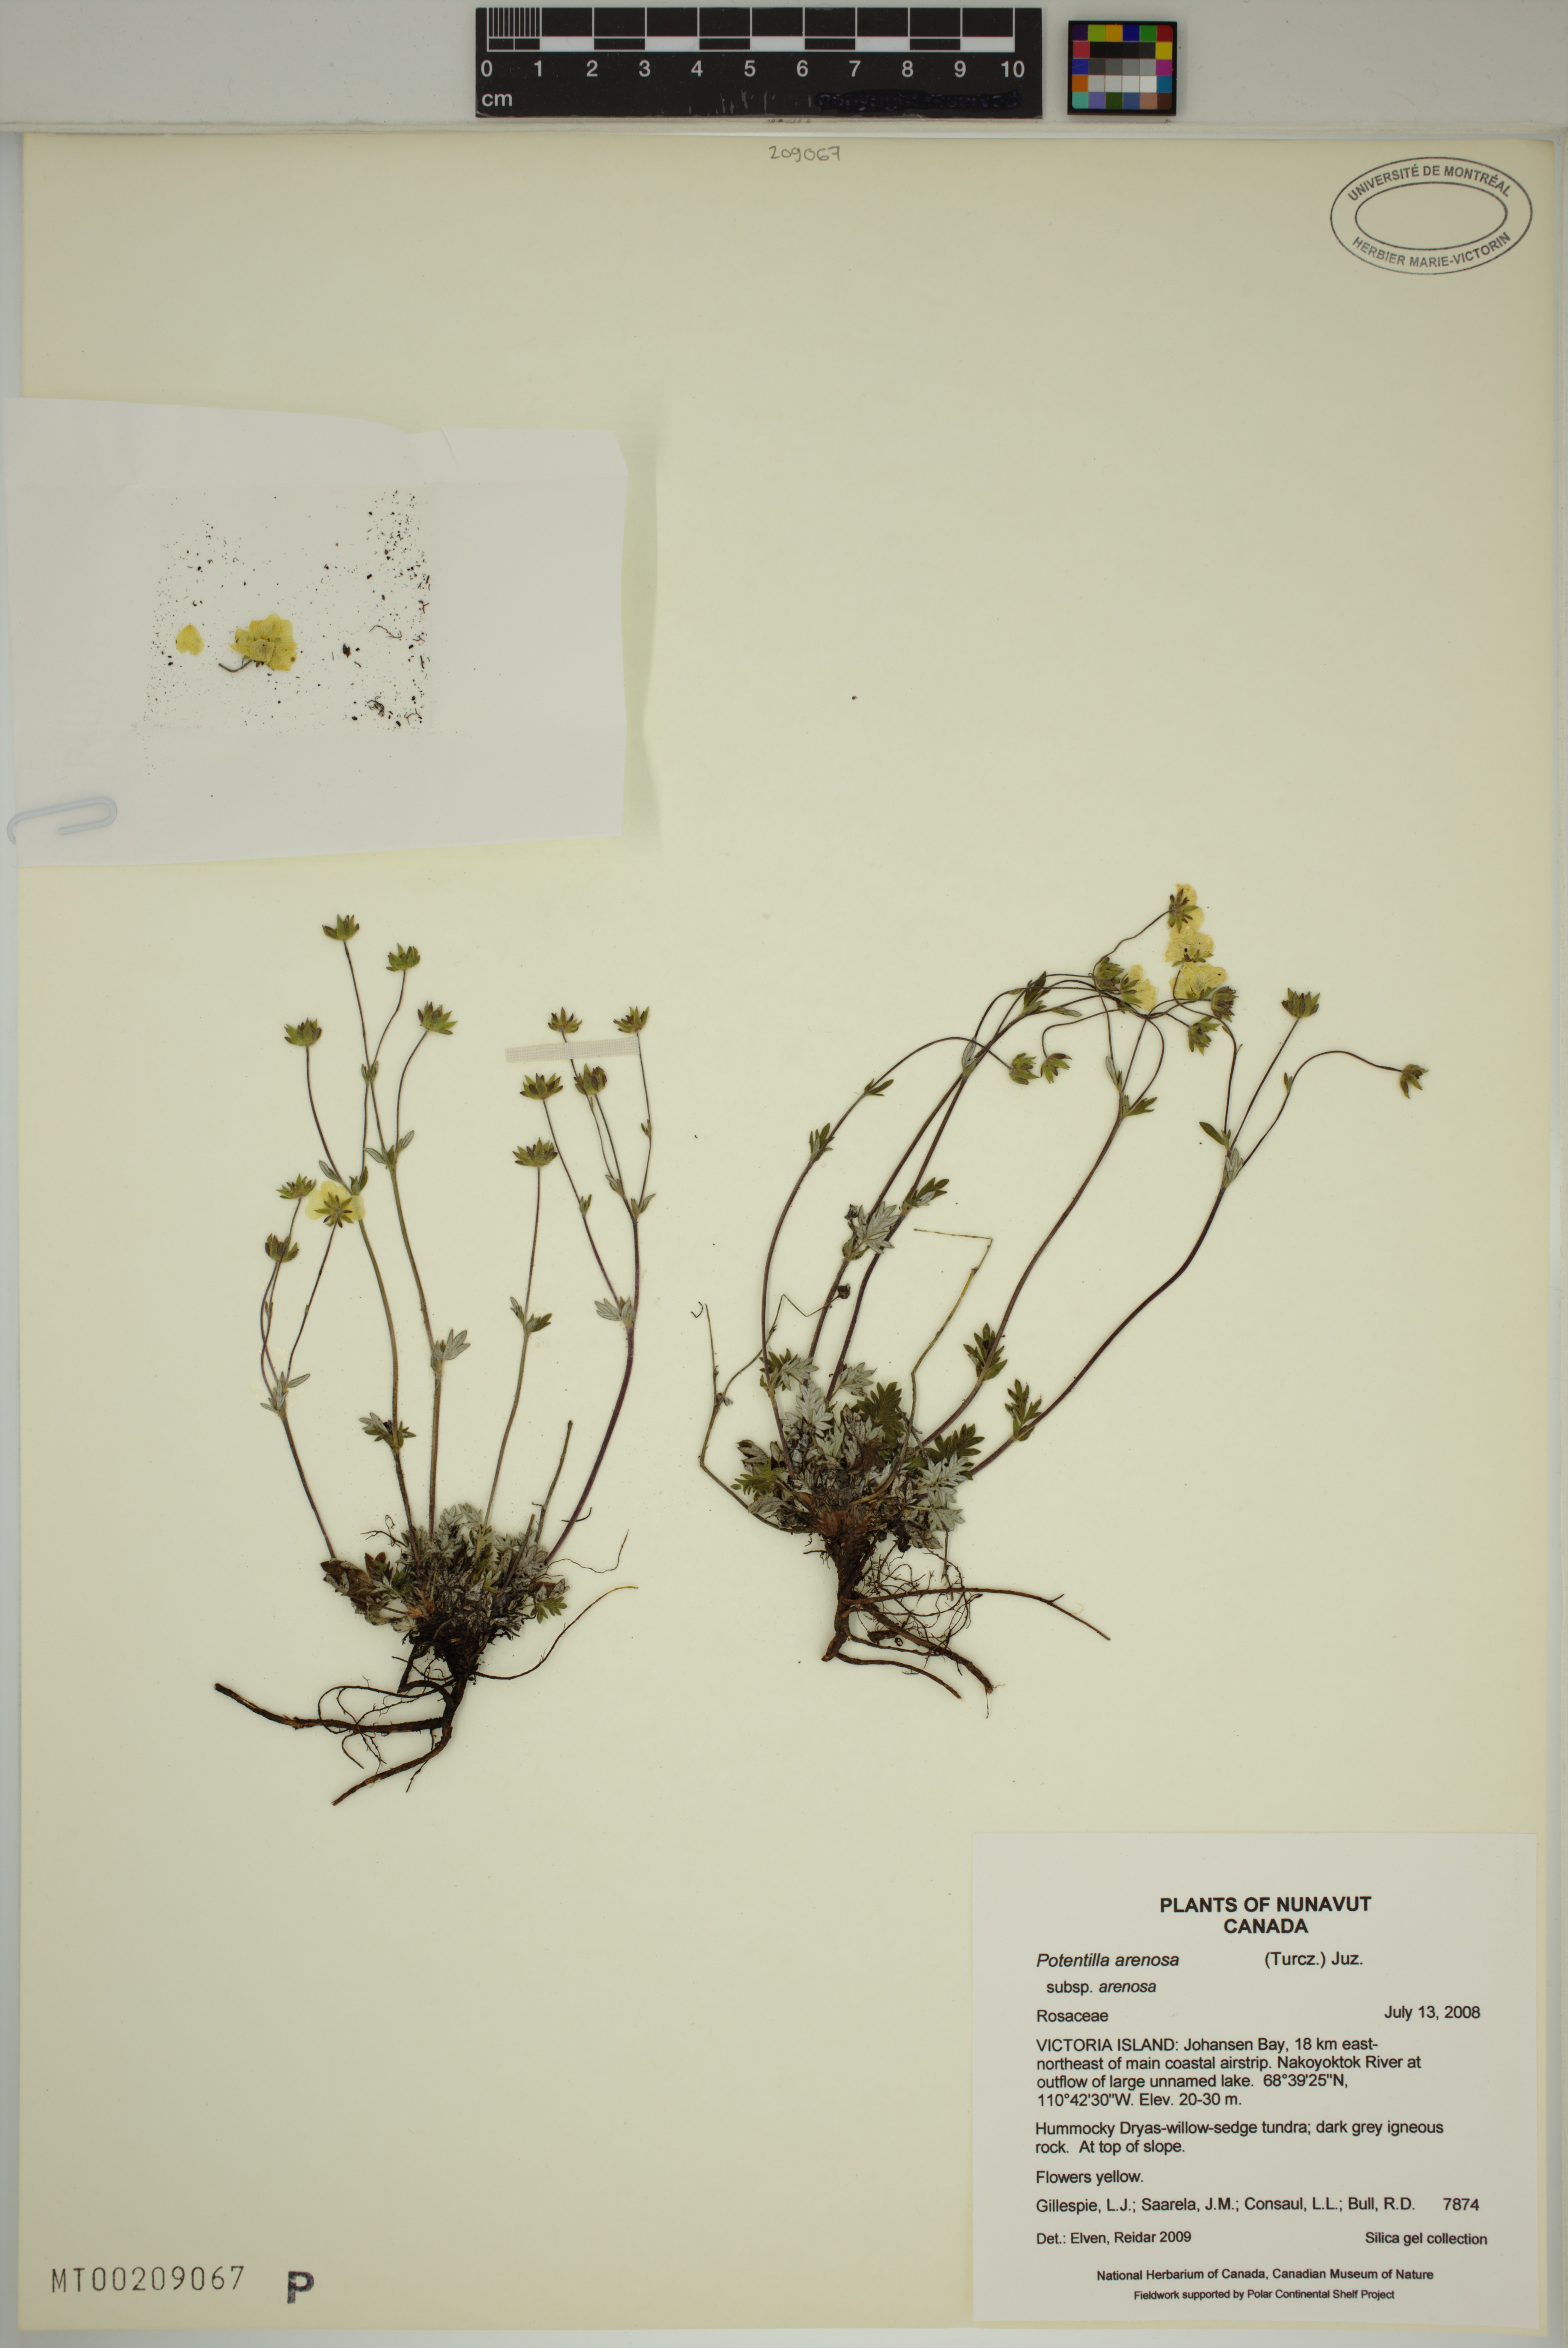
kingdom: Plantae
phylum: Tracheophyta
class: Magnoliopsida
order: Rosales
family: Rosaceae
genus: Potentilla
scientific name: Potentilla arenosa
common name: Bluff cinquefoil
